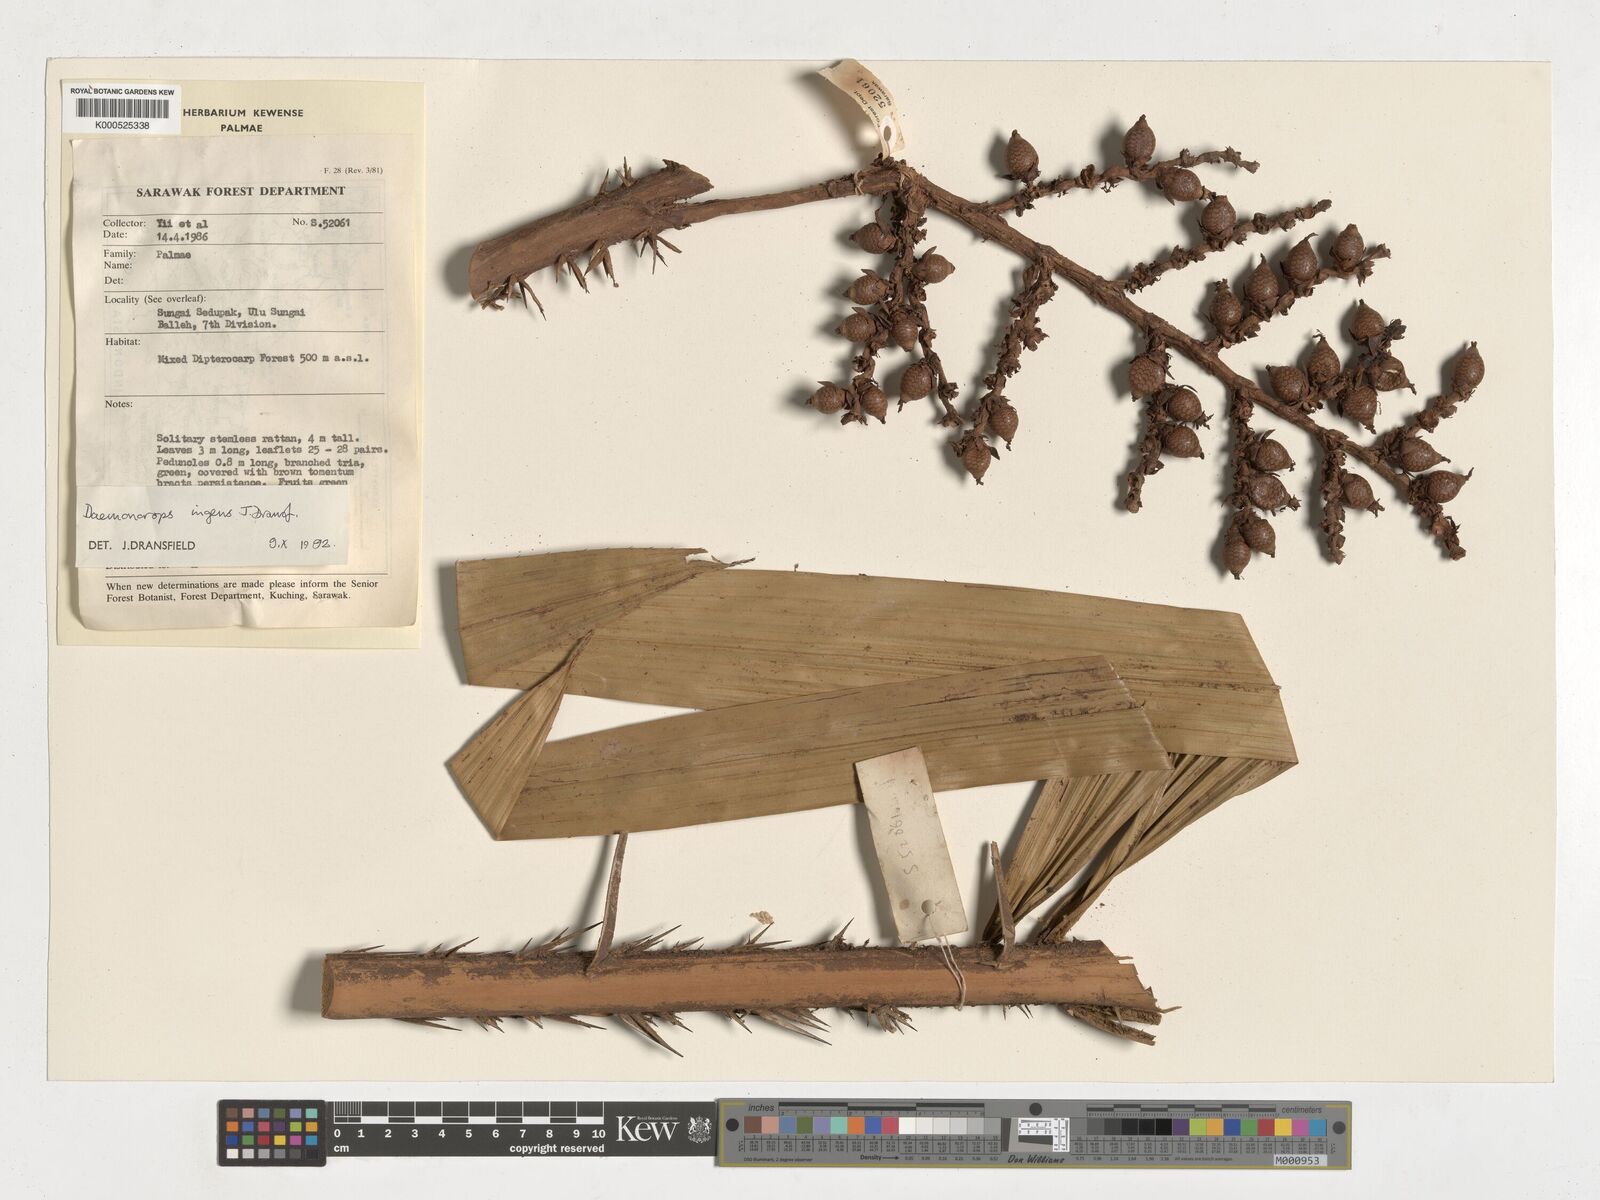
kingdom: Plantae
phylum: Tracheophyta
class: Liliopsida
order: Arecales
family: Arecaceae
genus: Calamus
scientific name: Calamus ingens
